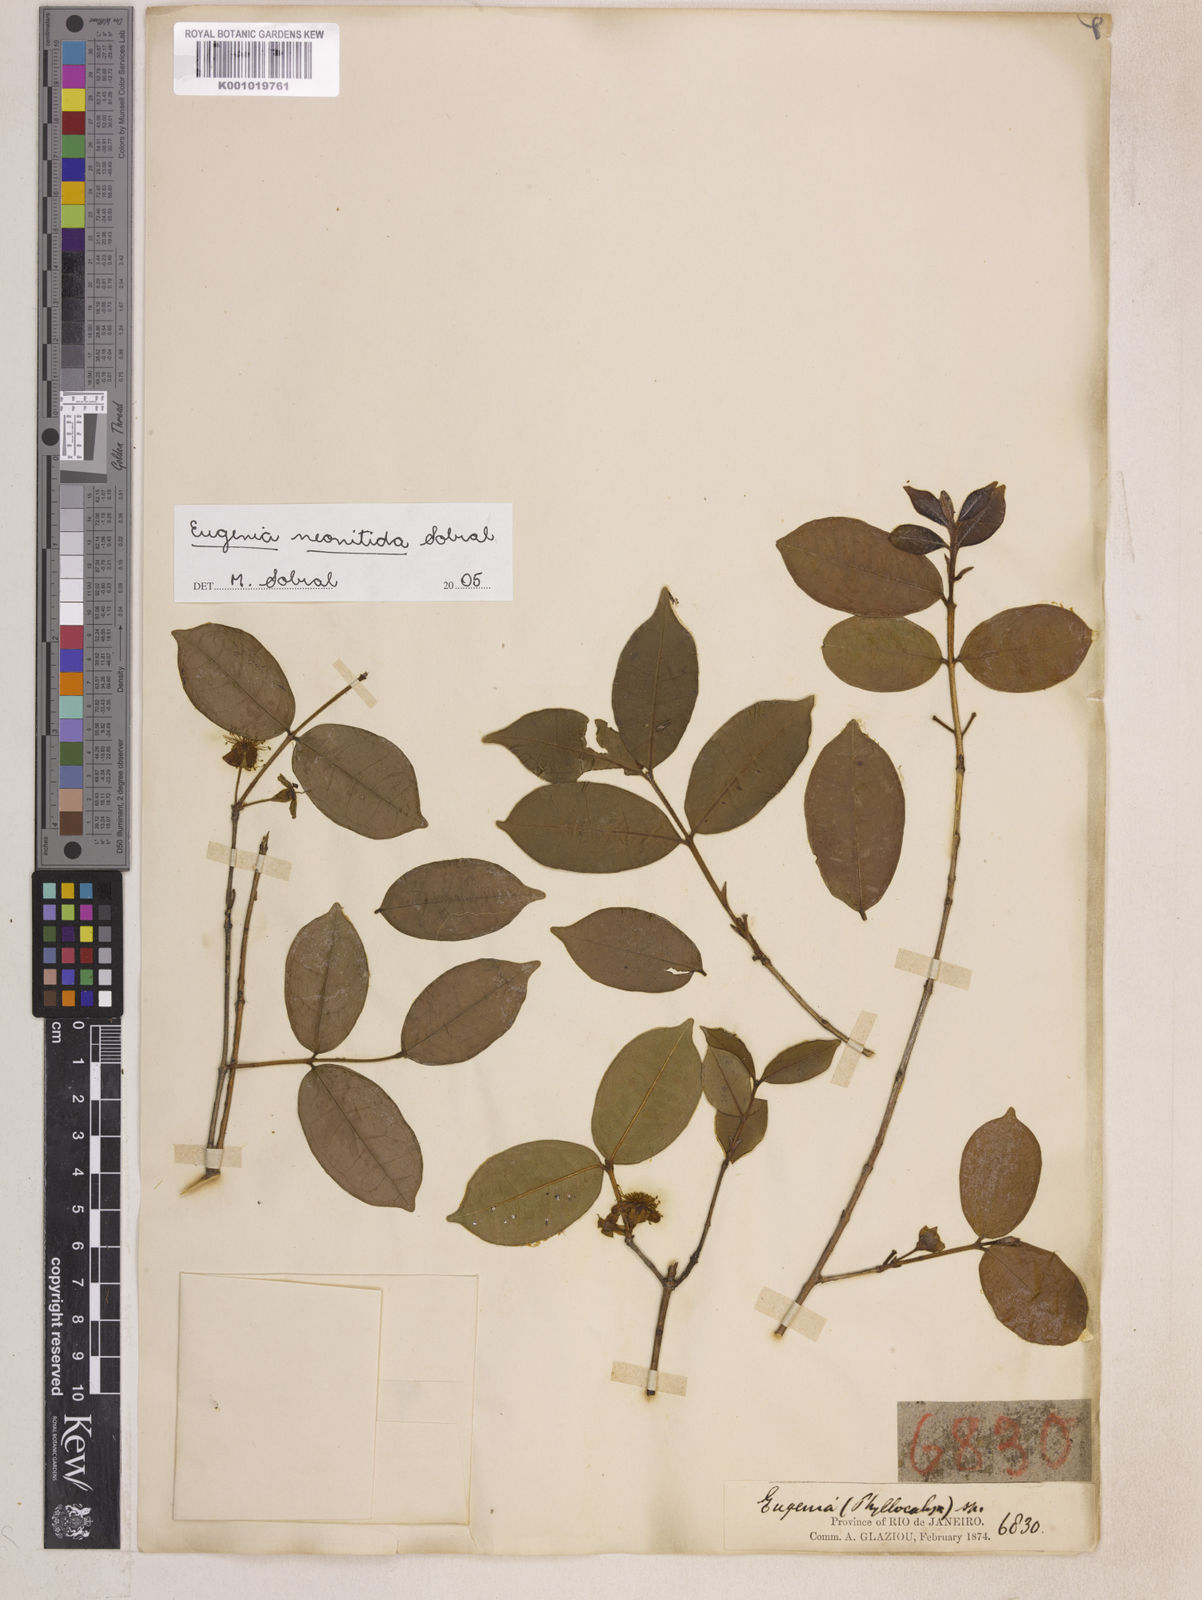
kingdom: Plantae
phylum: Tracheophyta
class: Magnoliopsida
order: Myrtales
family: Myrtaceae
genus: Eugenia
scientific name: Eugenia selloi
